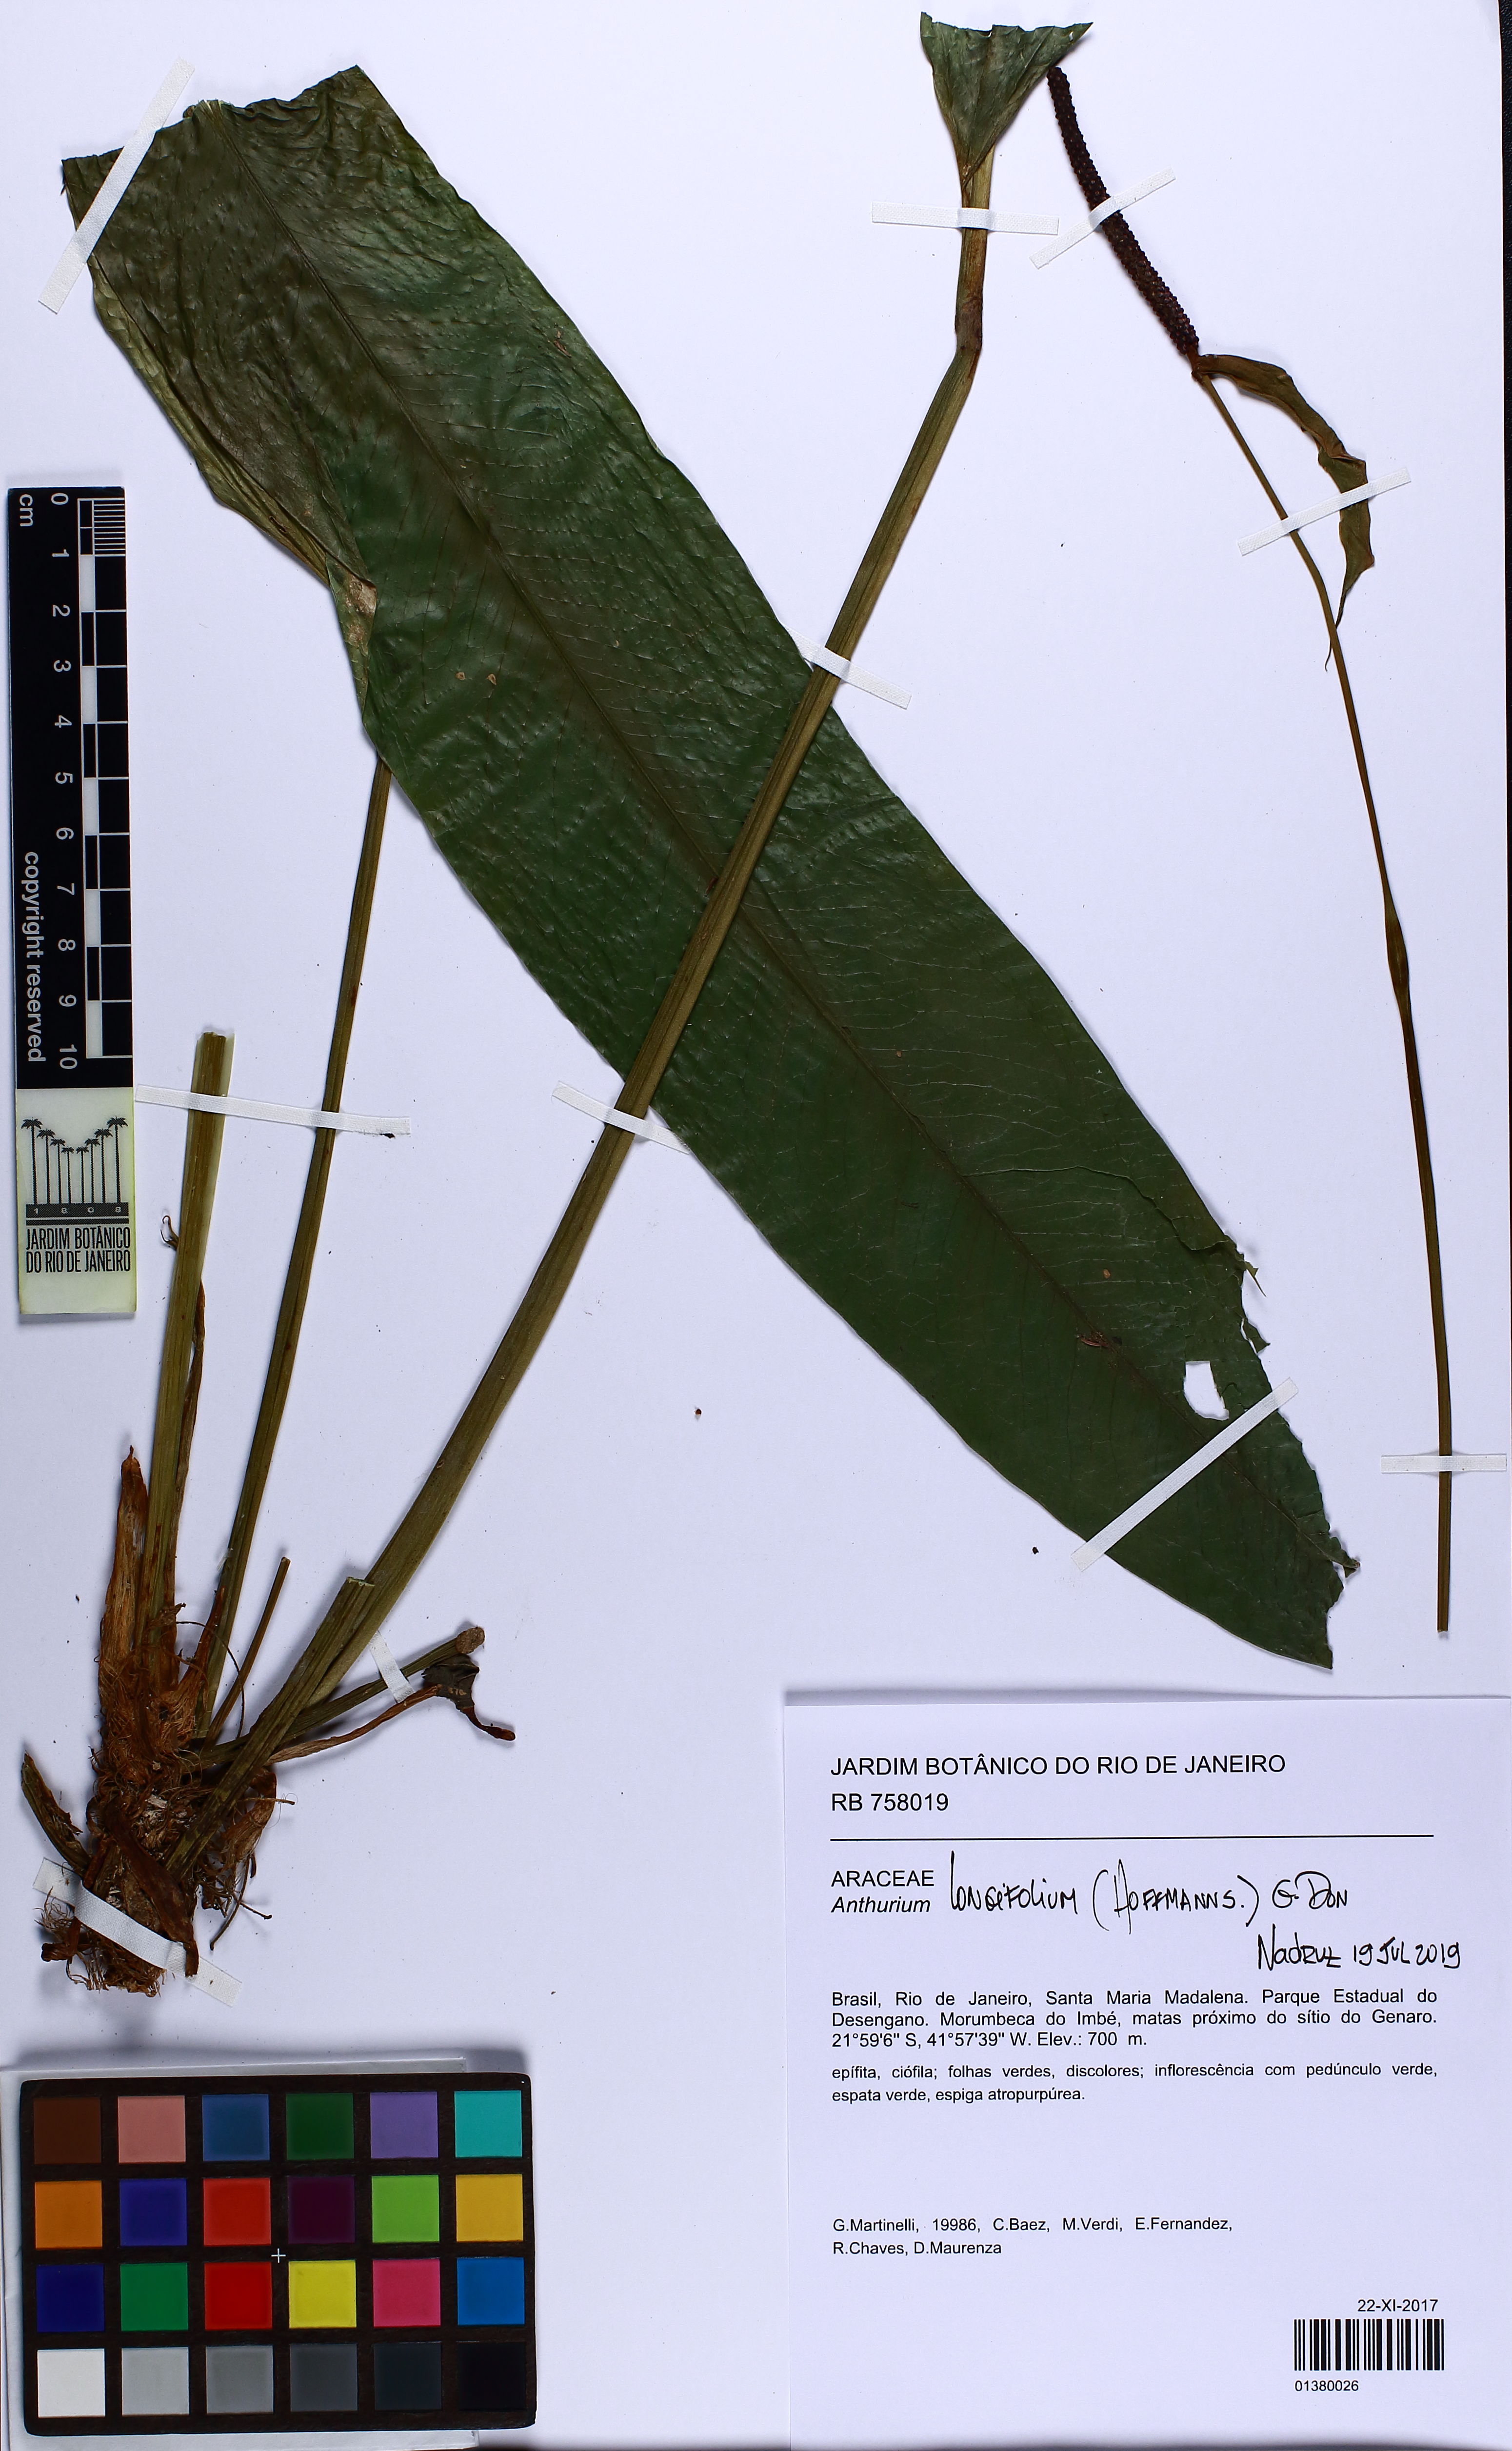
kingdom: Plantae
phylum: Tracheophyta
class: Liliopsida
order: Alismatales
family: Araceae
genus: Anthurium
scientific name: Anthurium longifolium
